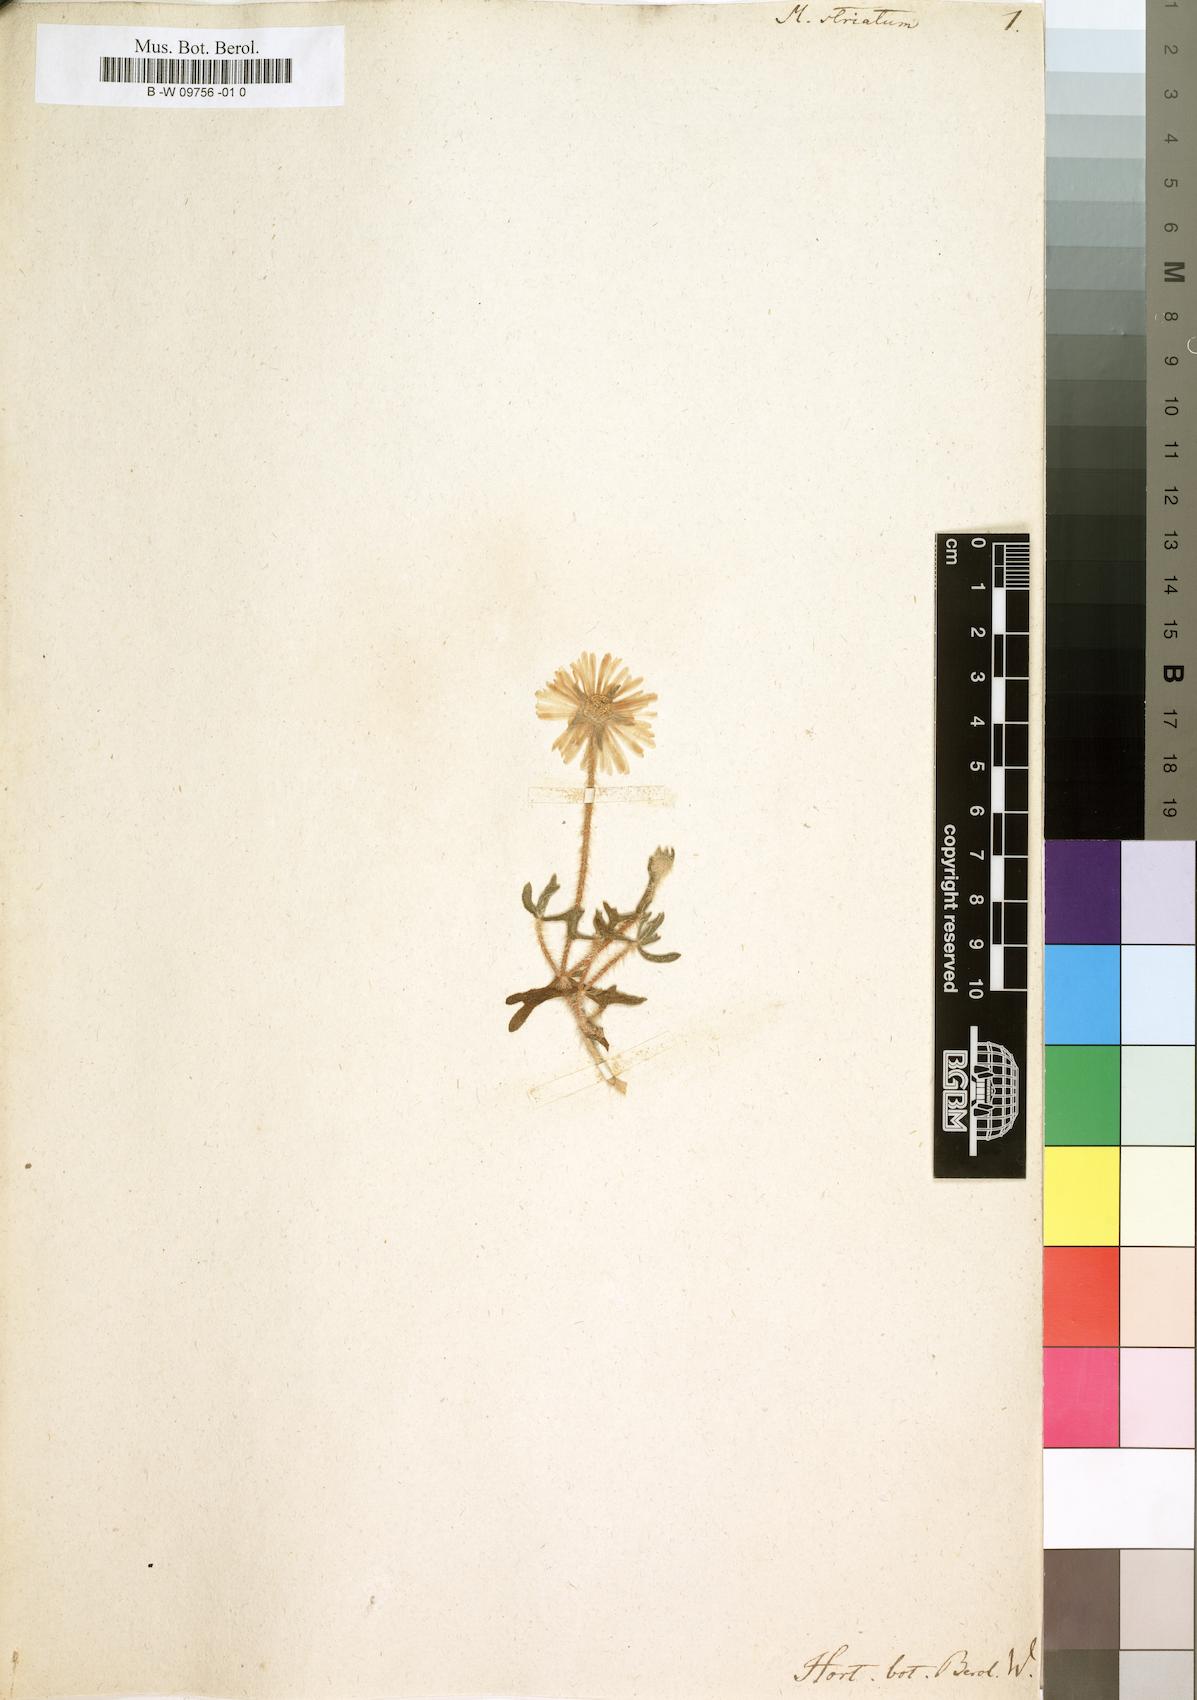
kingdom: Plantae
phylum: Tracheophyta
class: Magnoliopsida
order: Caryophyllales
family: Aizoaceae
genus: Drosanthemum
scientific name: Drosanthemum striatum
